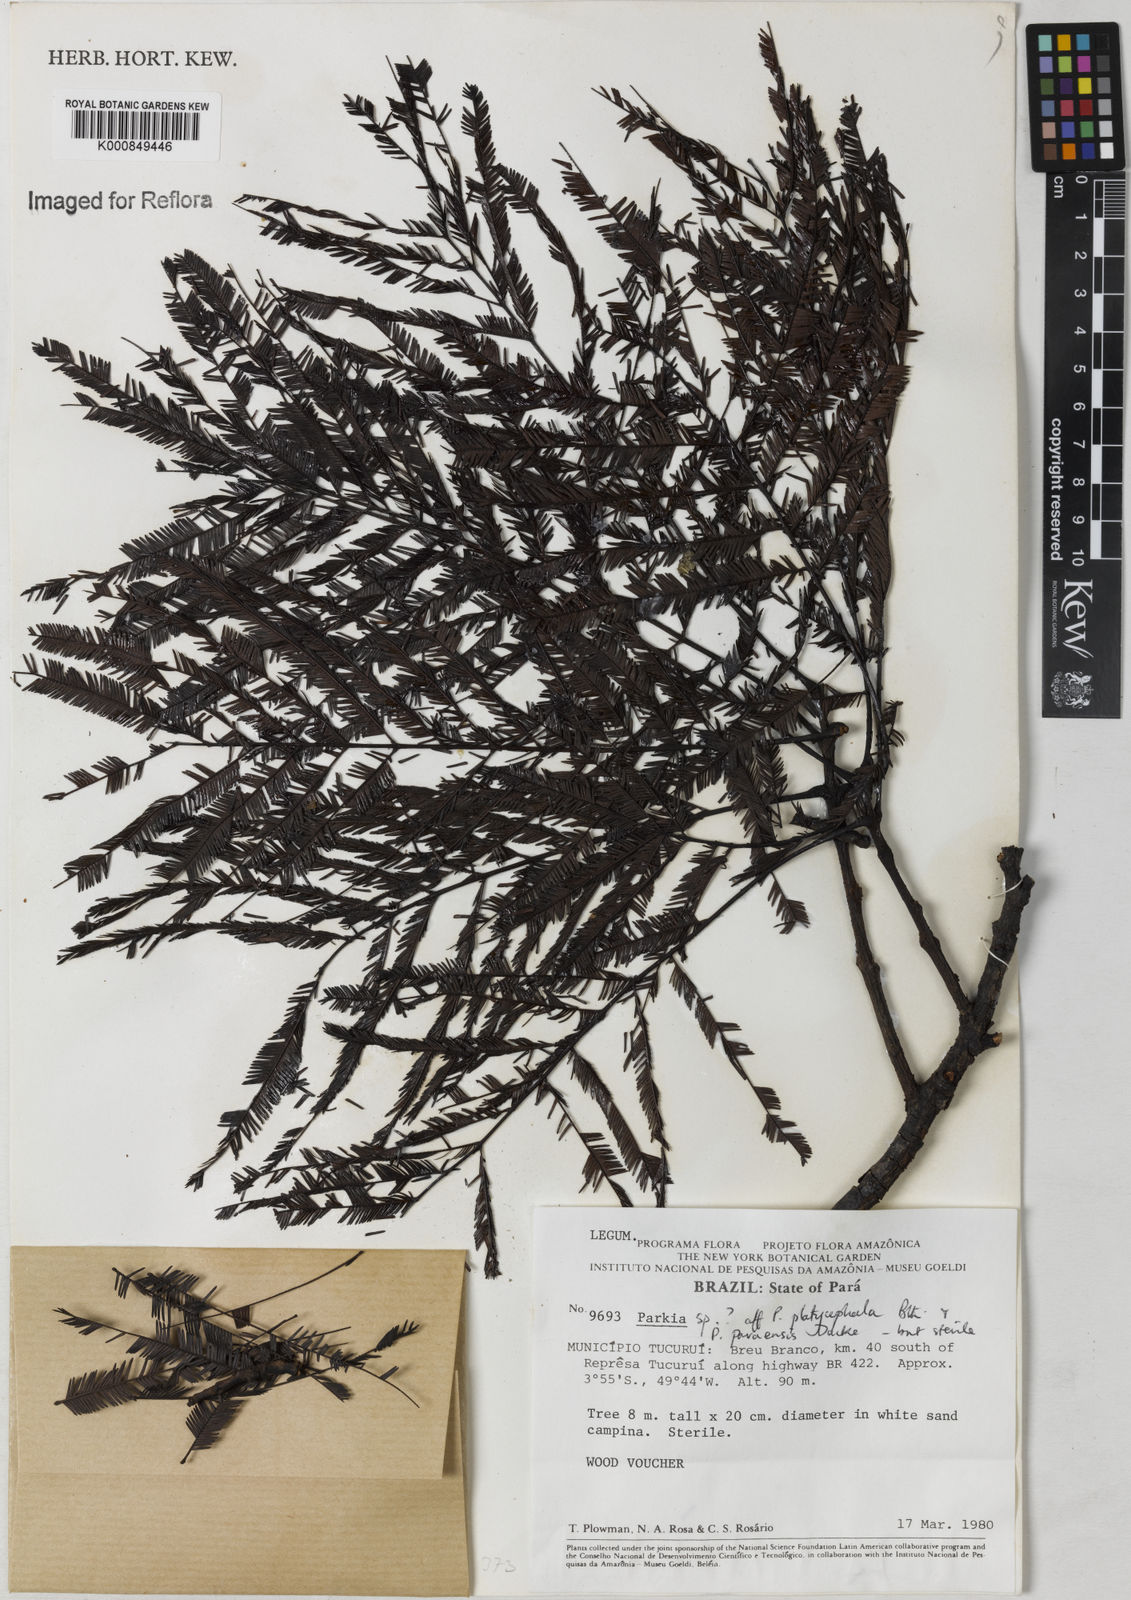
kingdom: Plantae
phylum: Tracheophyta
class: Magnoliopsida
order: Fabales
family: Fabaceae
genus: Parkia
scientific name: Parkia
